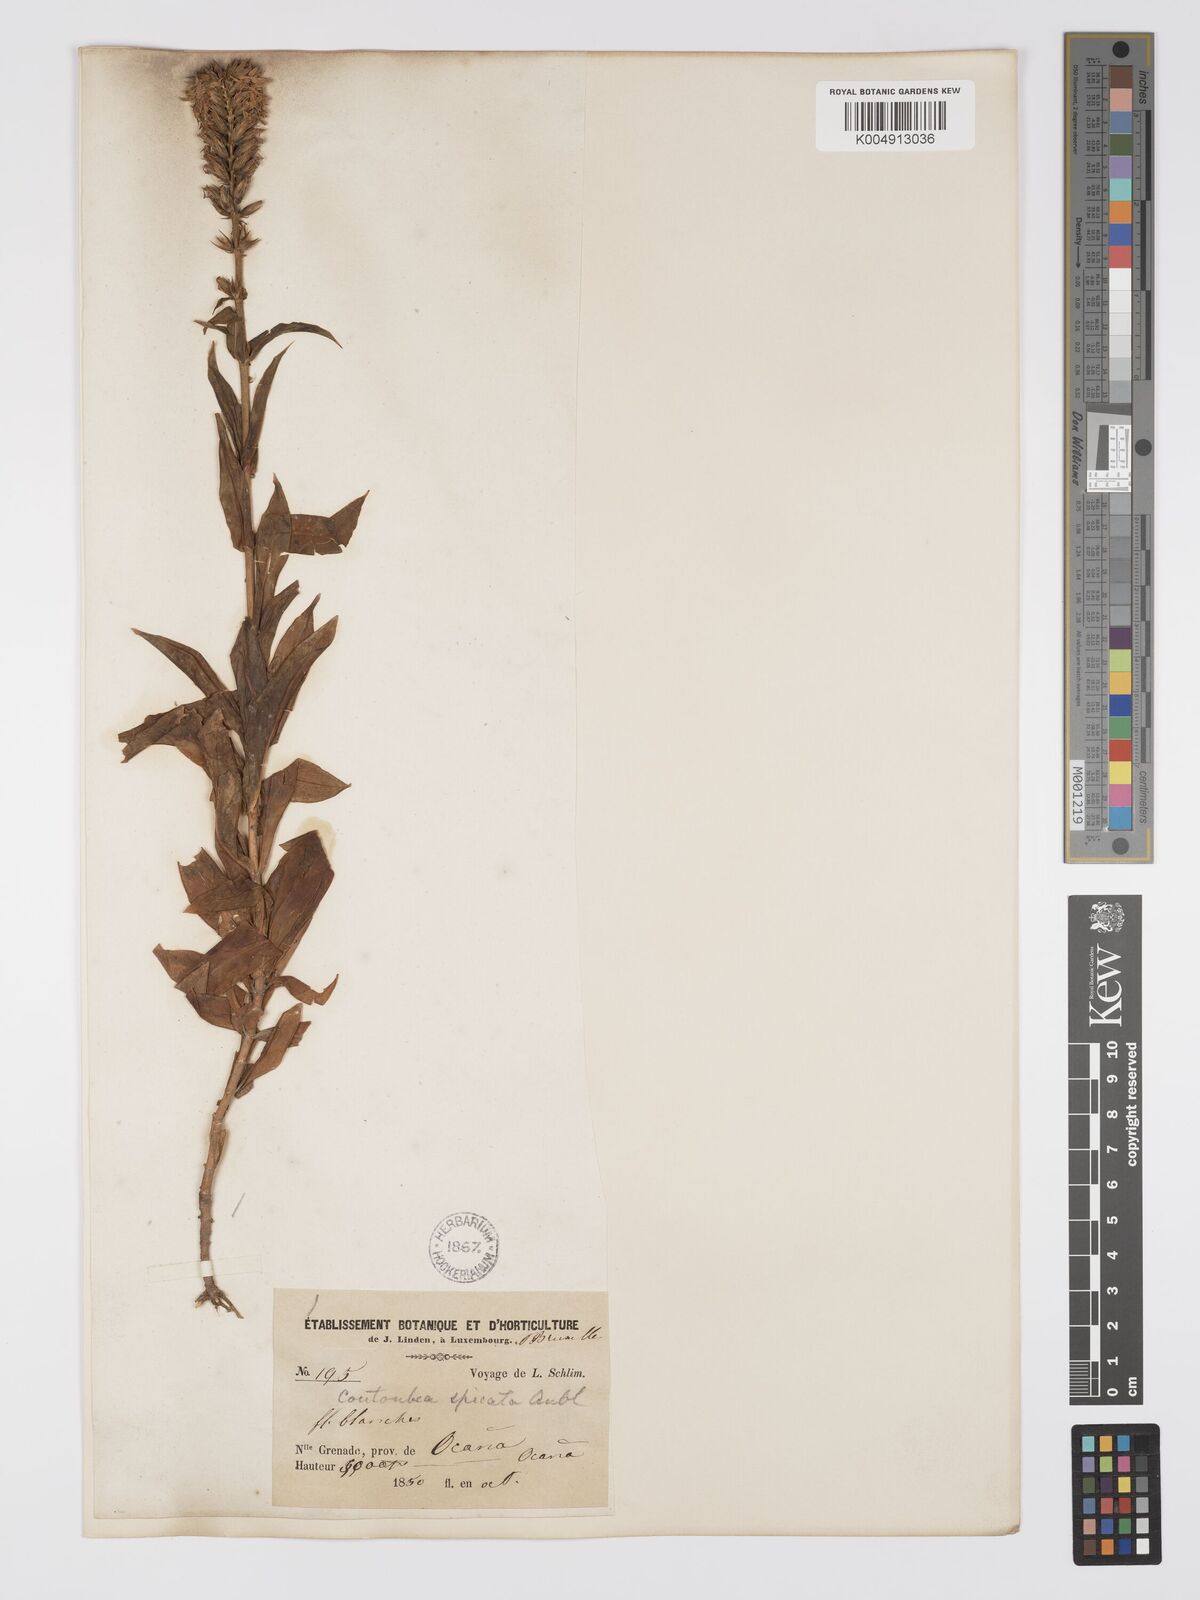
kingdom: Plantae
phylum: Tracheophyta
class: Magnoliopsida
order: Gentianales
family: Gentianaceae
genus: Coutoubea
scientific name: Coutoubea spicata
